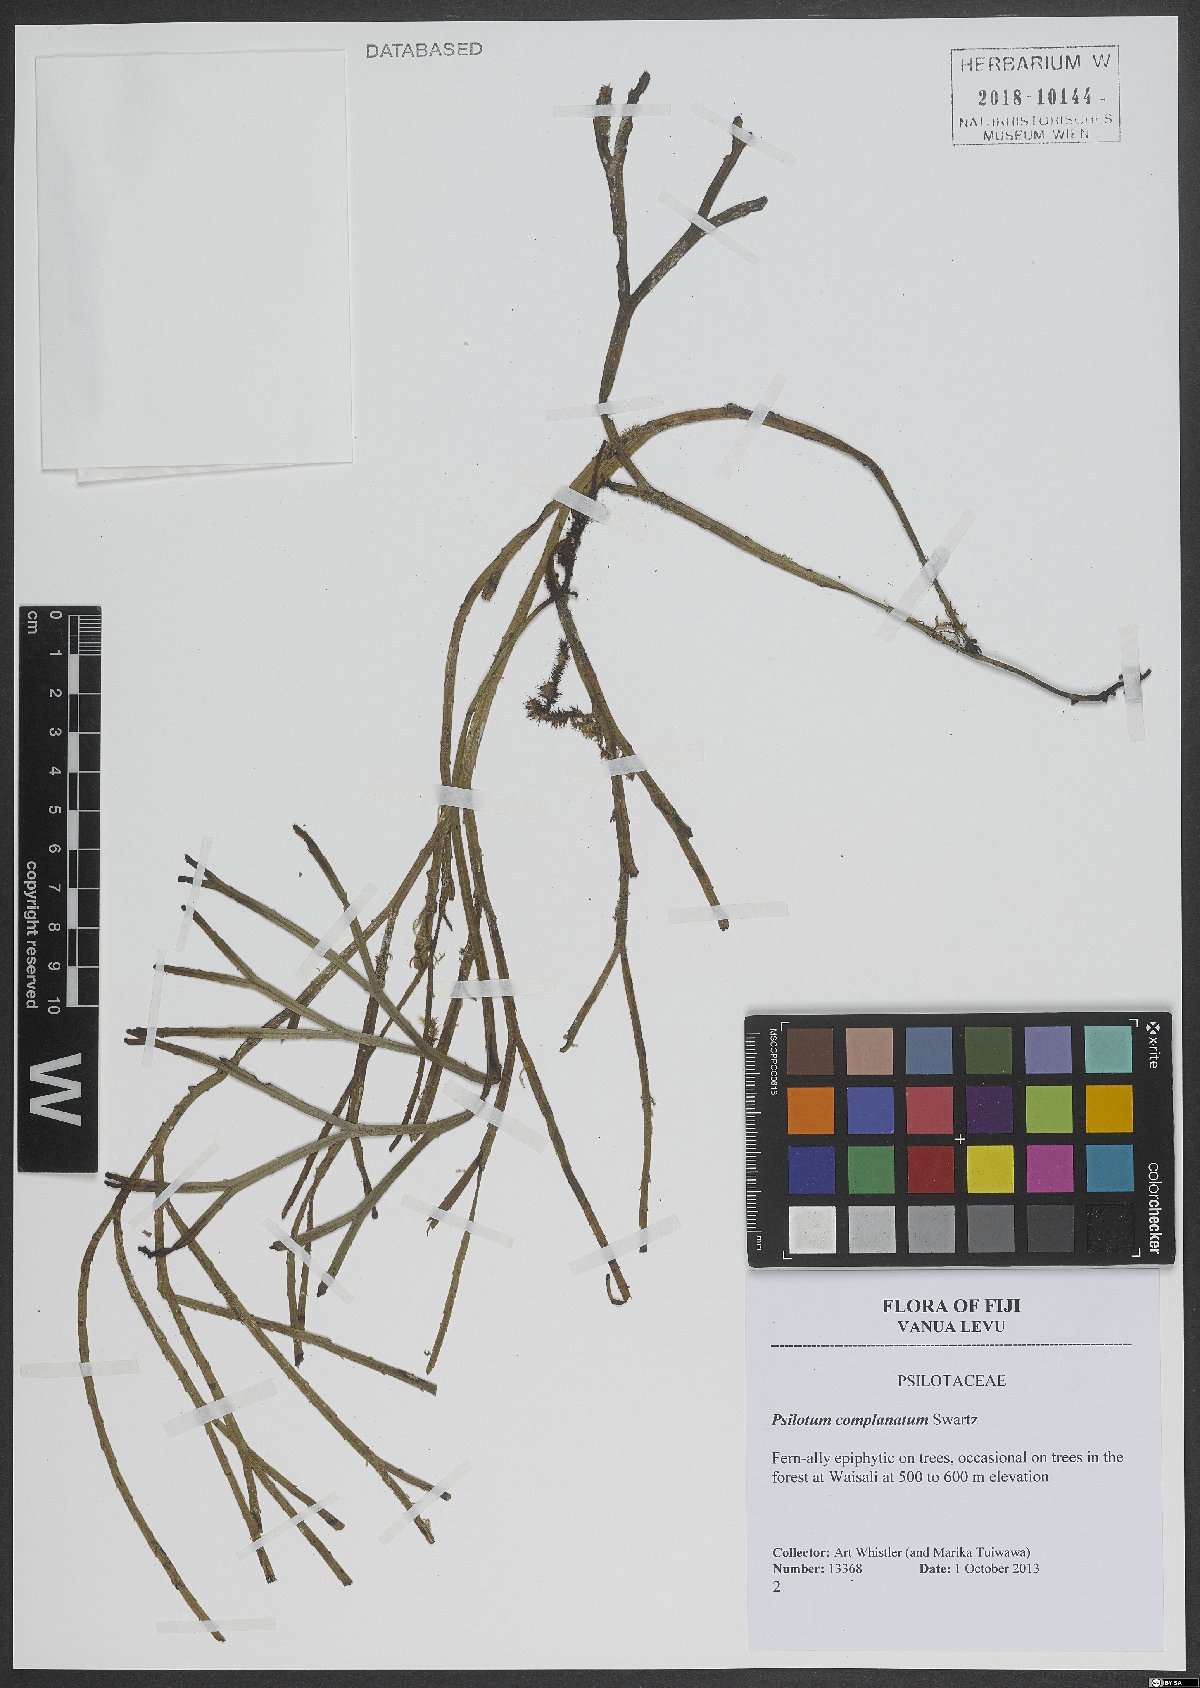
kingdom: Plantae
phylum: Tracheophyta
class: Polypodiopsida
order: Psilotales
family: Psilotaceae
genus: Psilotum
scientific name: Psilotum complanatum
